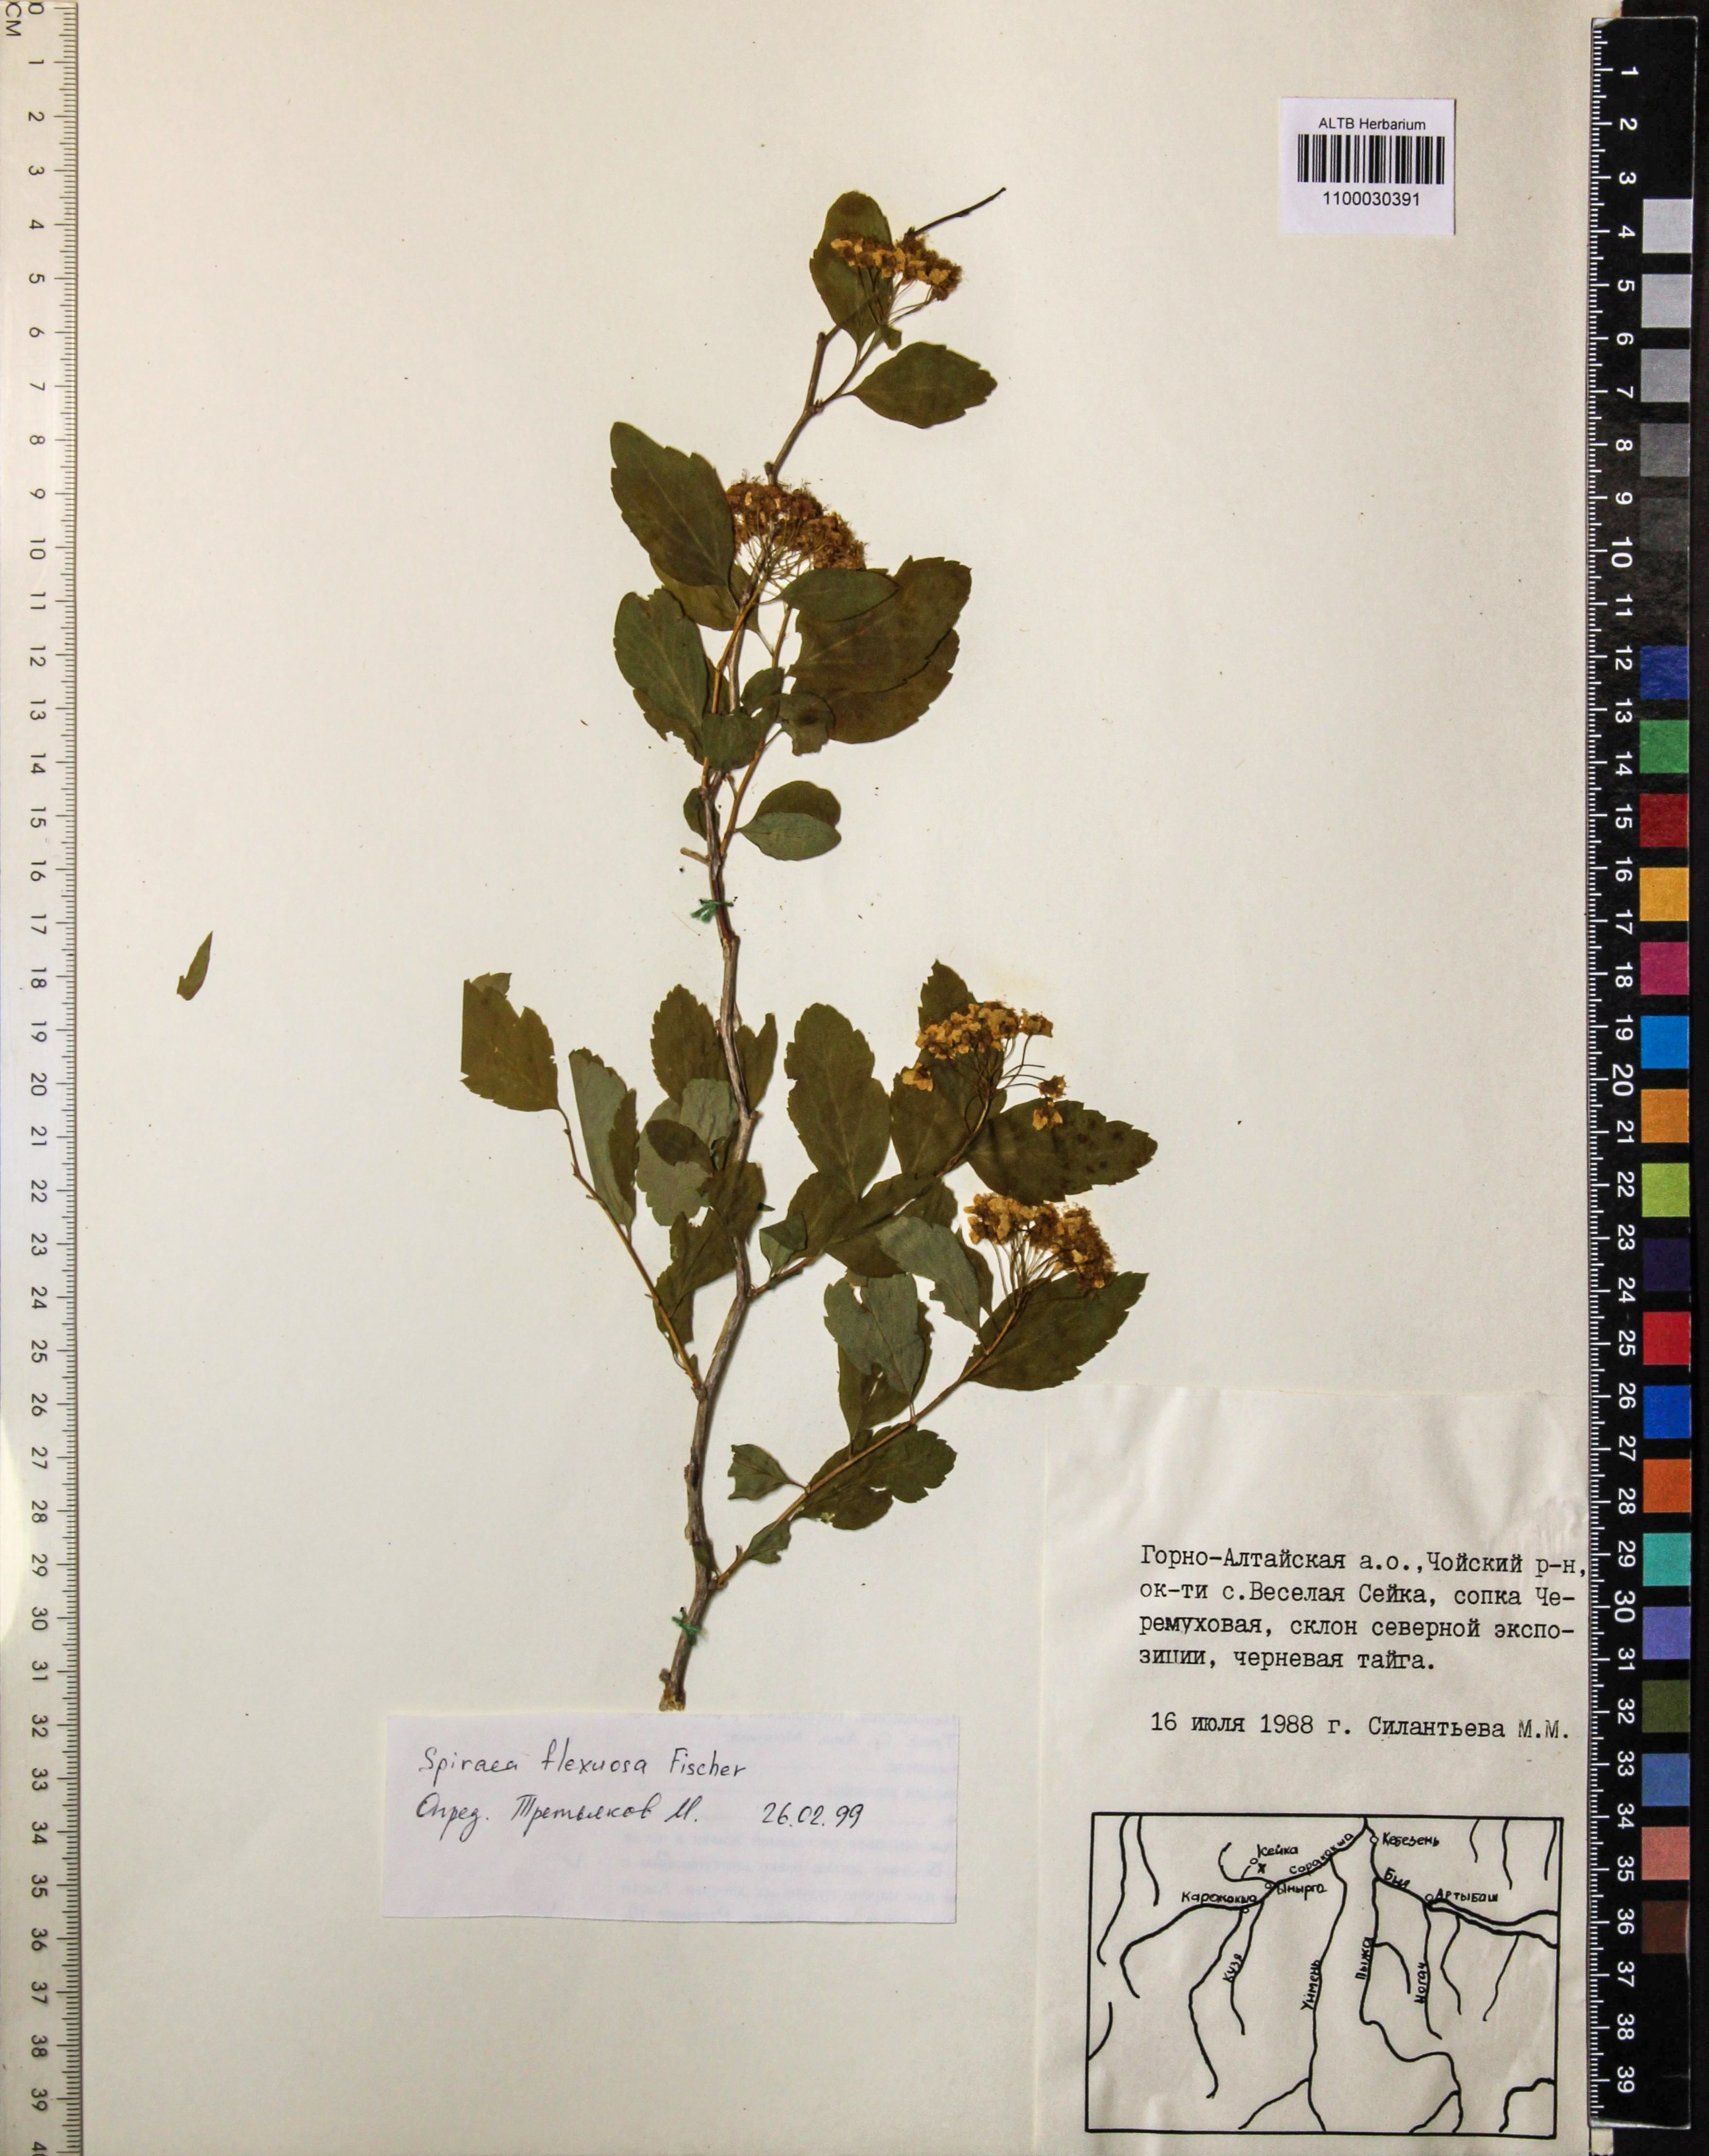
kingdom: Plantae
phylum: Tracheophyta
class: Magnoliopsida
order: Rosales
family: Rosaceae
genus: Spiraea
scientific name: Spiraea flexuosa
